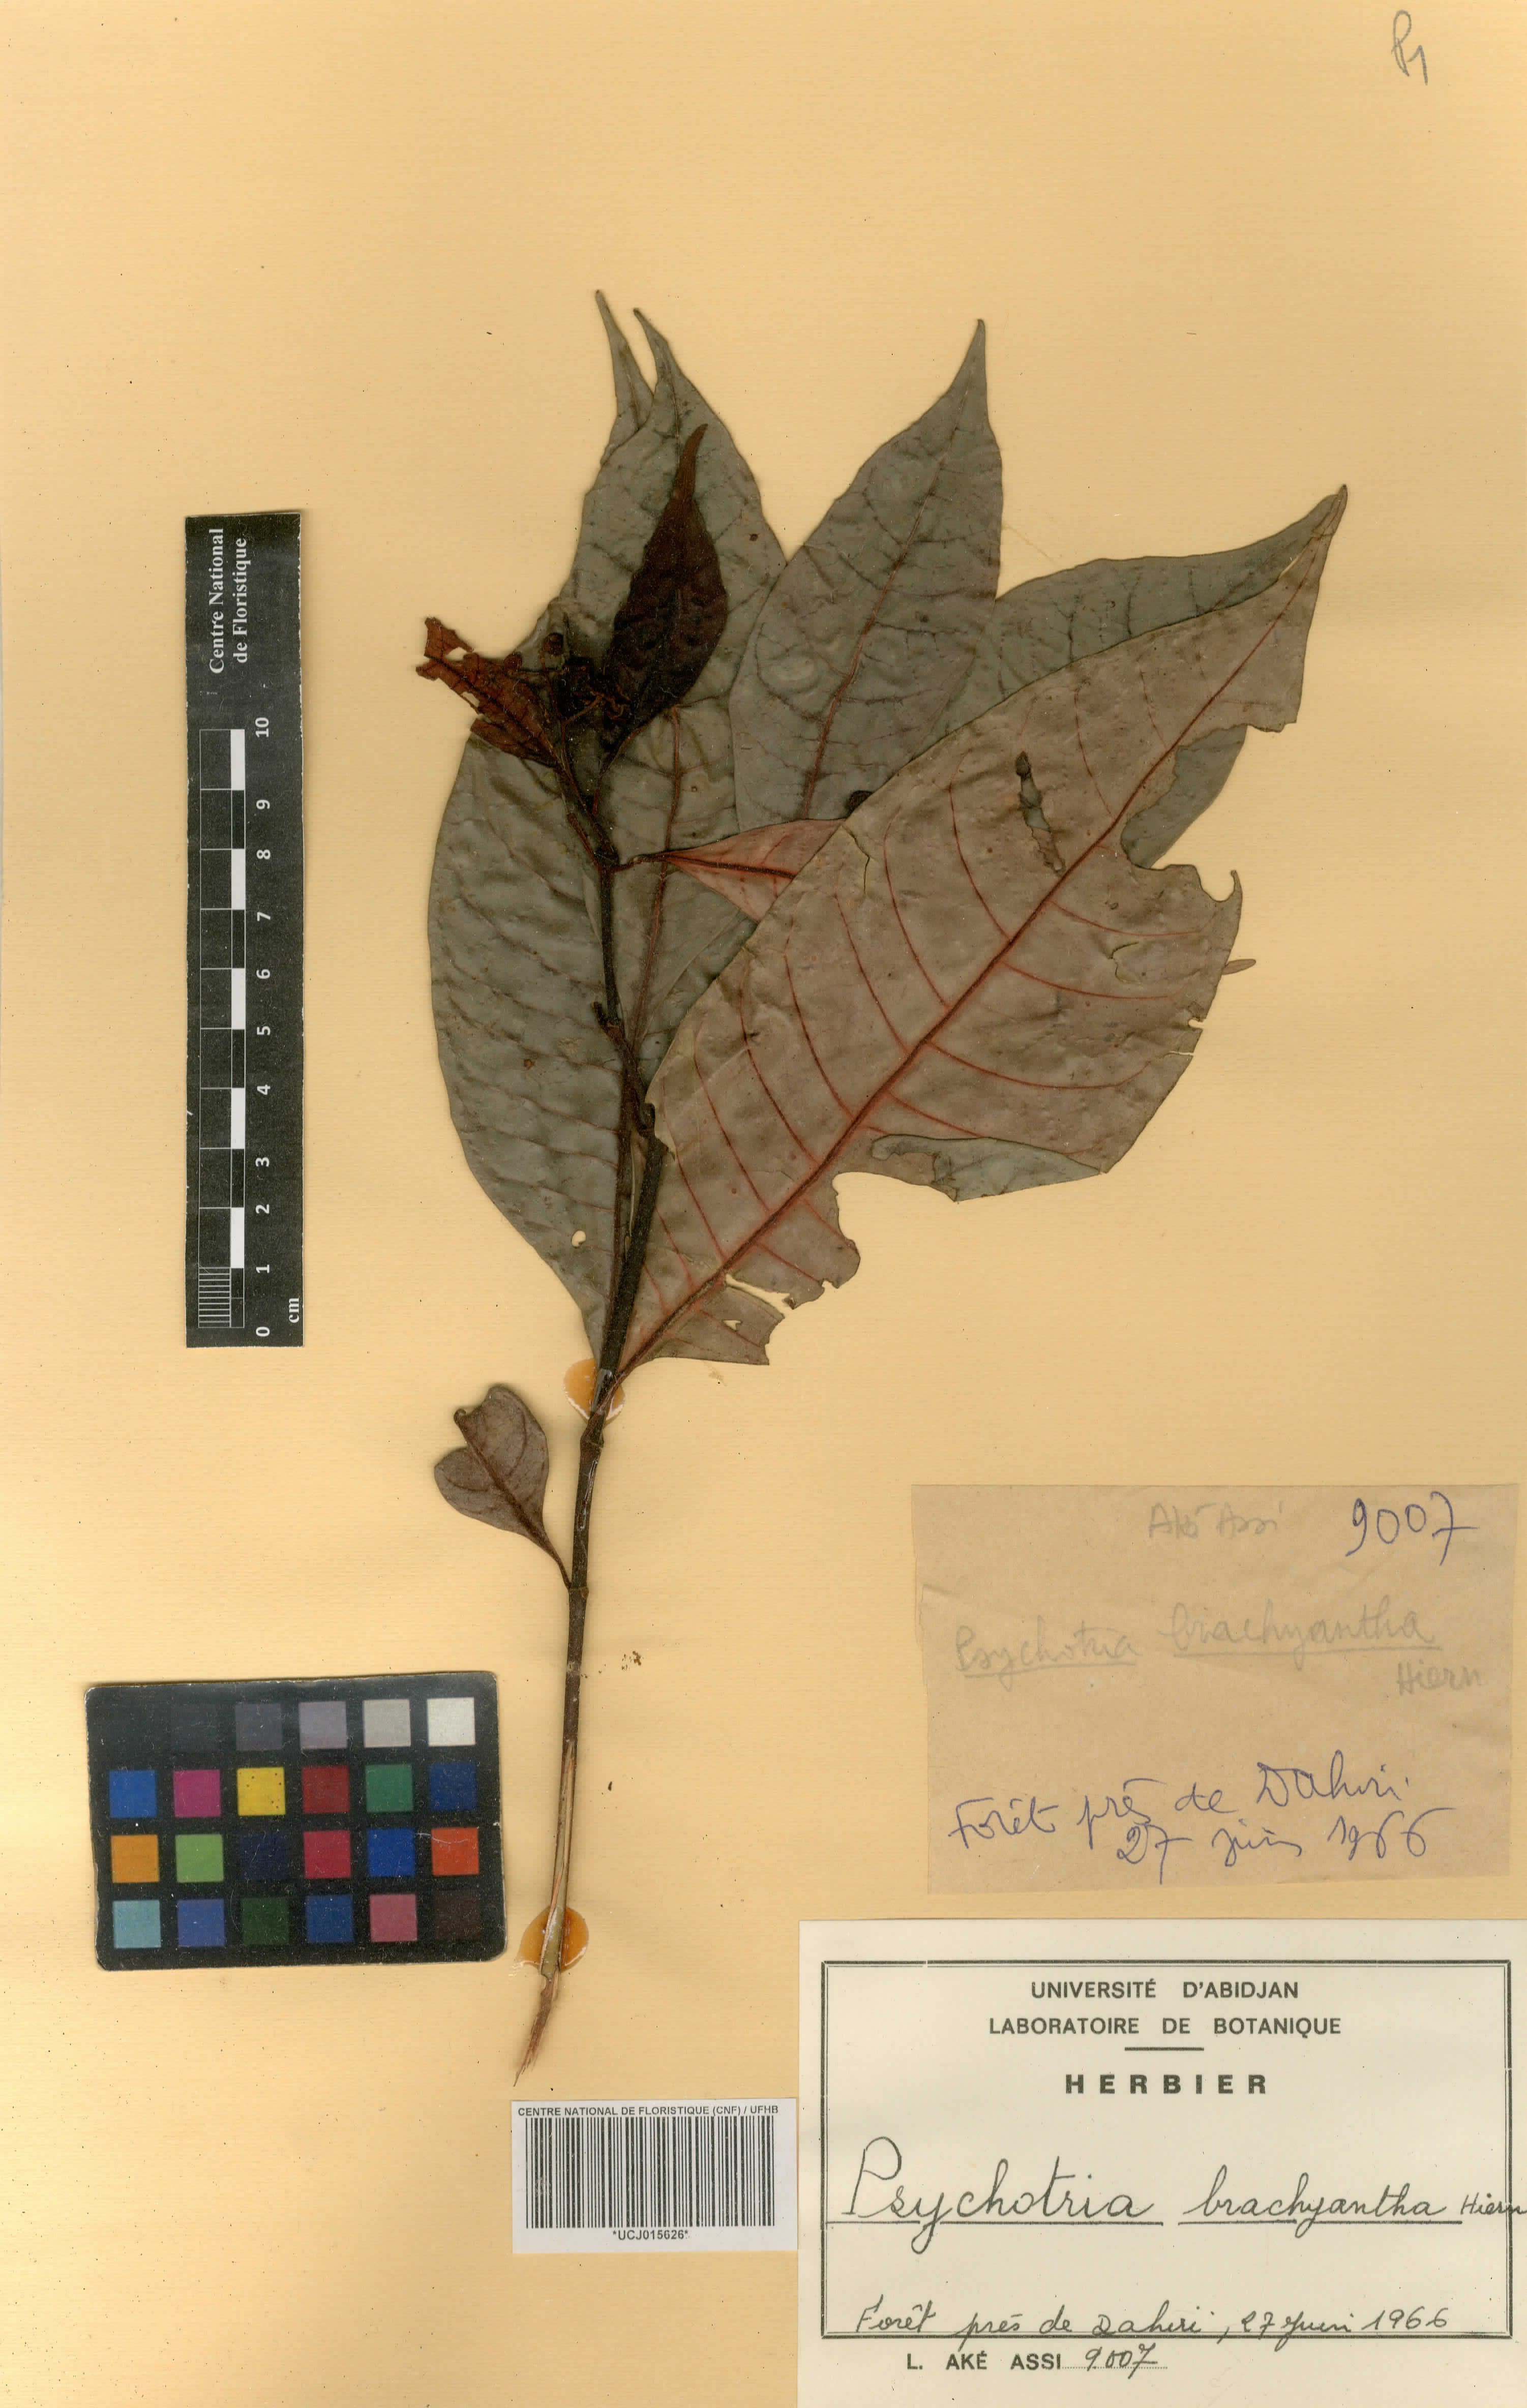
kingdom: Plantae
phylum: Tracheophyta
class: Magnoliopsida
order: Gentianales
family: Rubiaceae
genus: Psychotria
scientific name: Psychotria brachyantha
